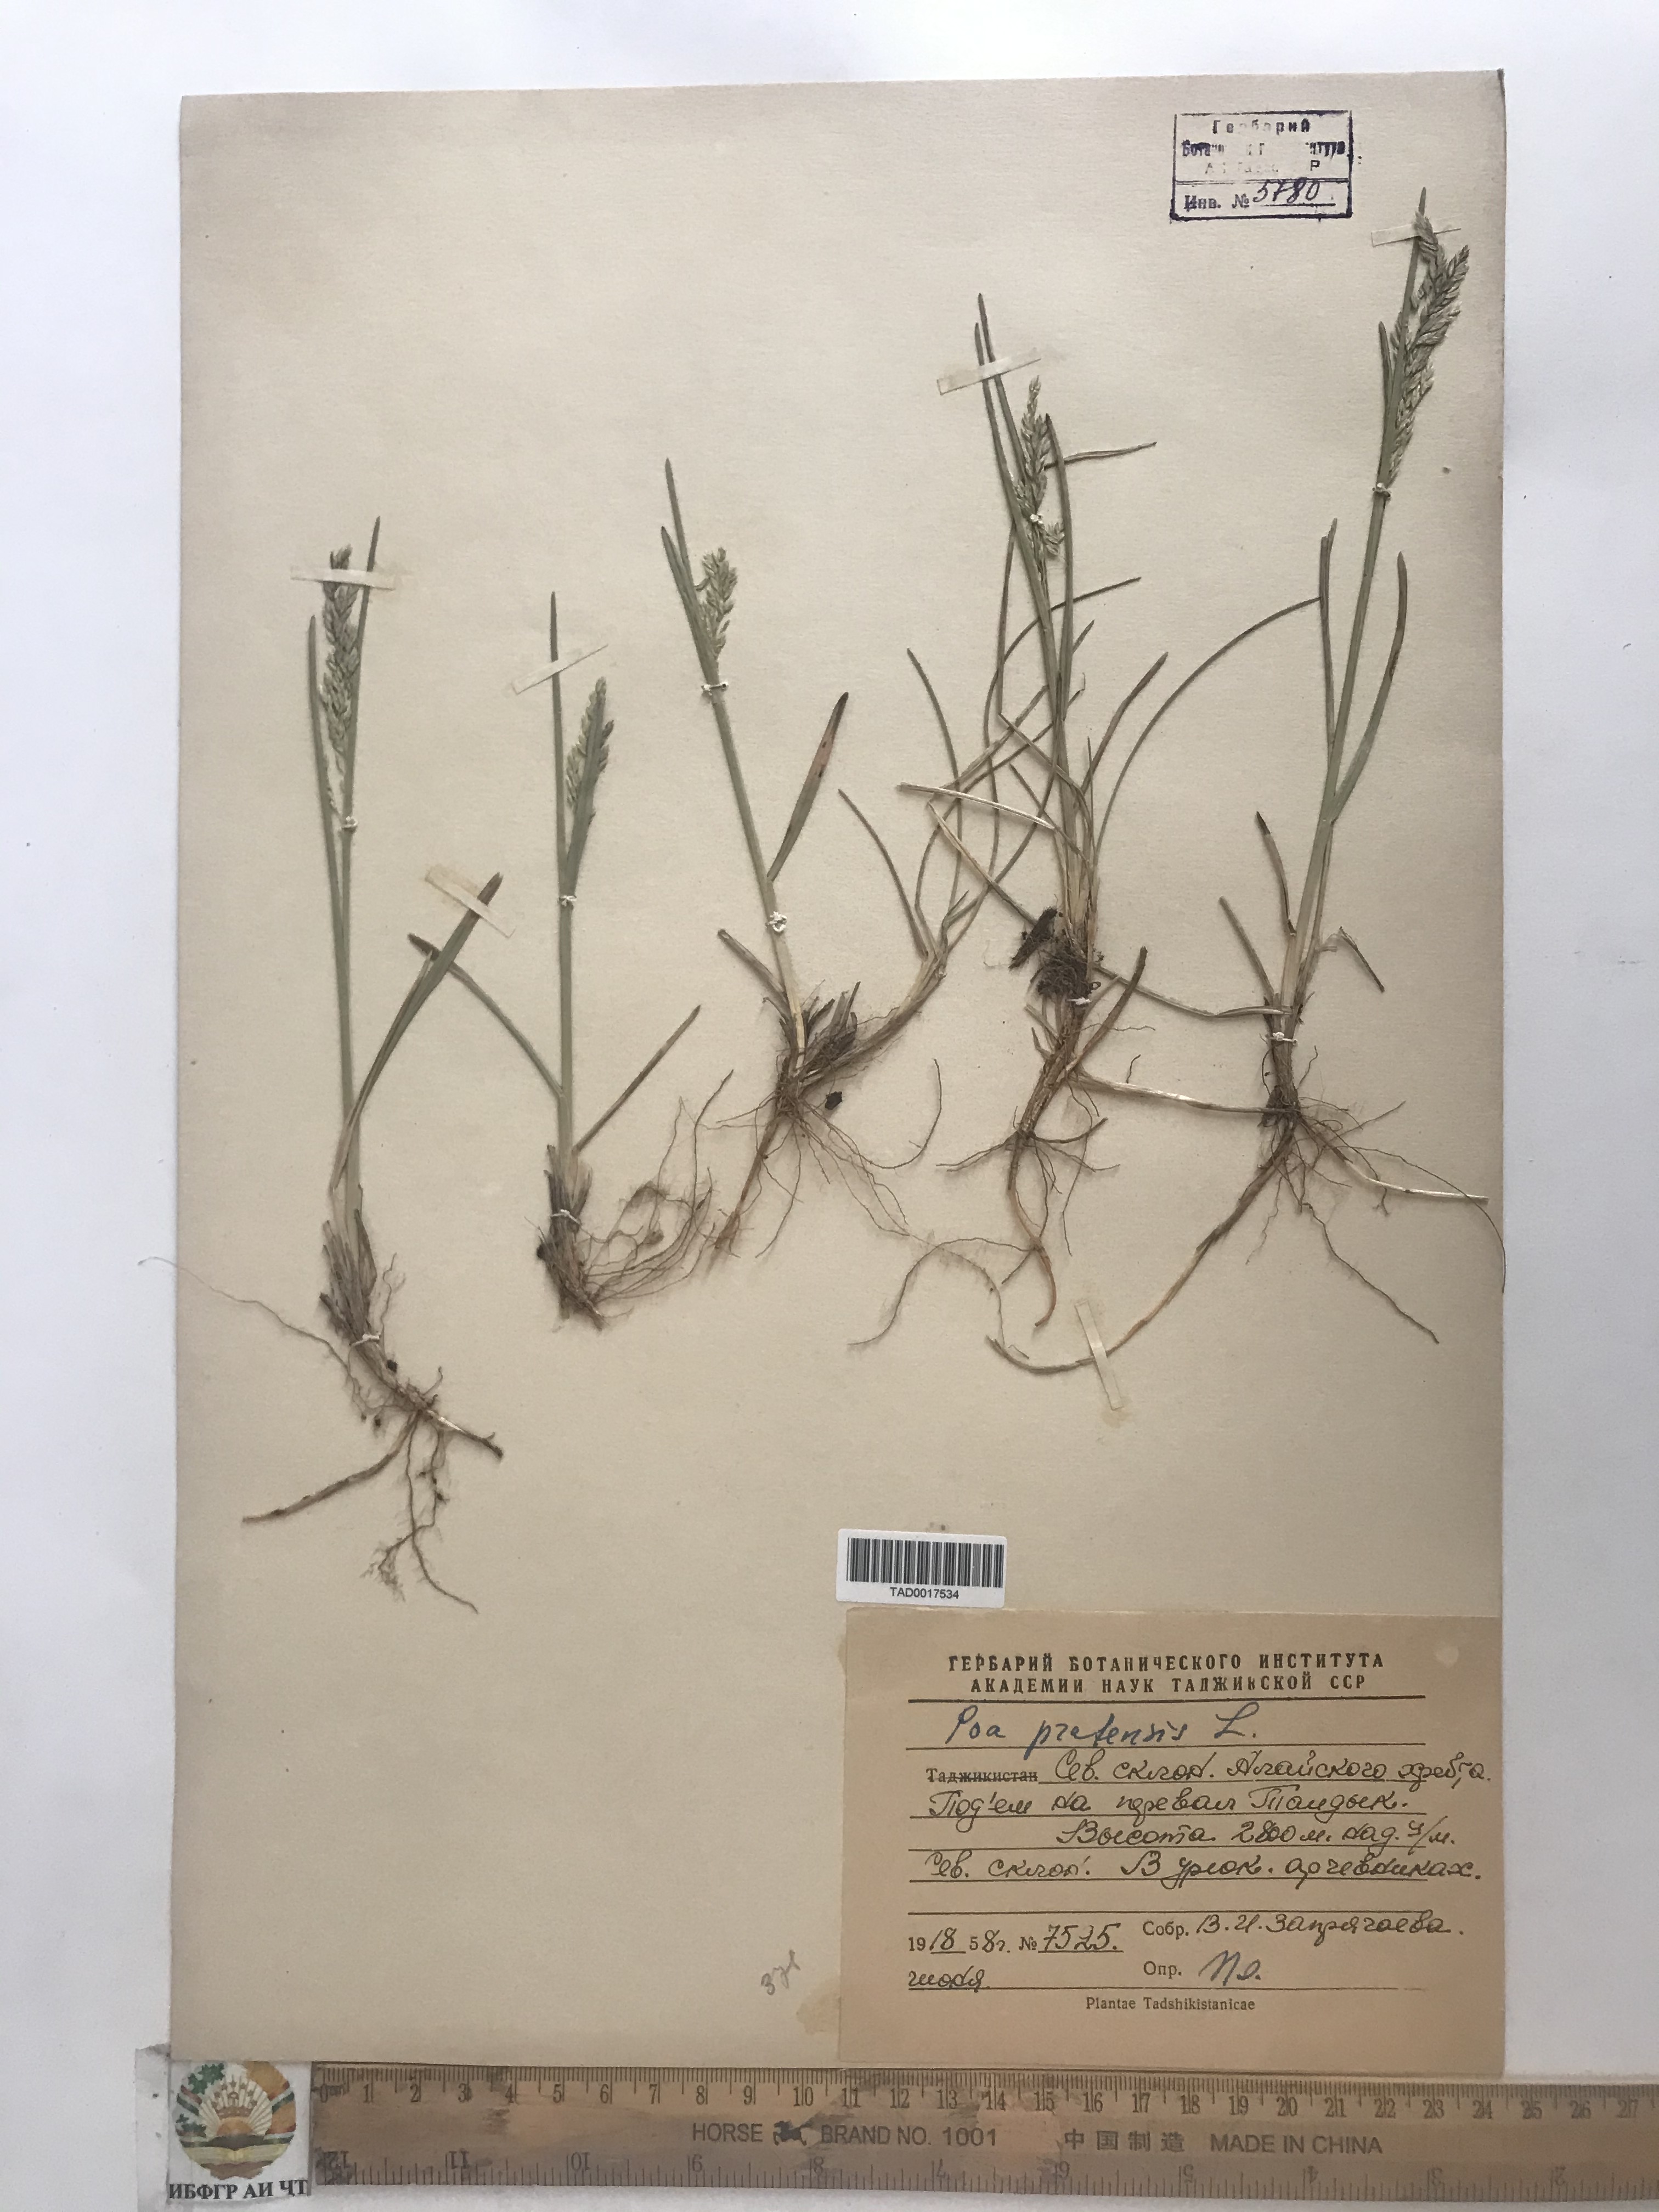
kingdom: Plantae
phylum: Tracheophyta
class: Liliopsida
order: Poales
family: Poaceae
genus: Poa
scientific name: Poa pratensis
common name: Kentucky bluegrass
